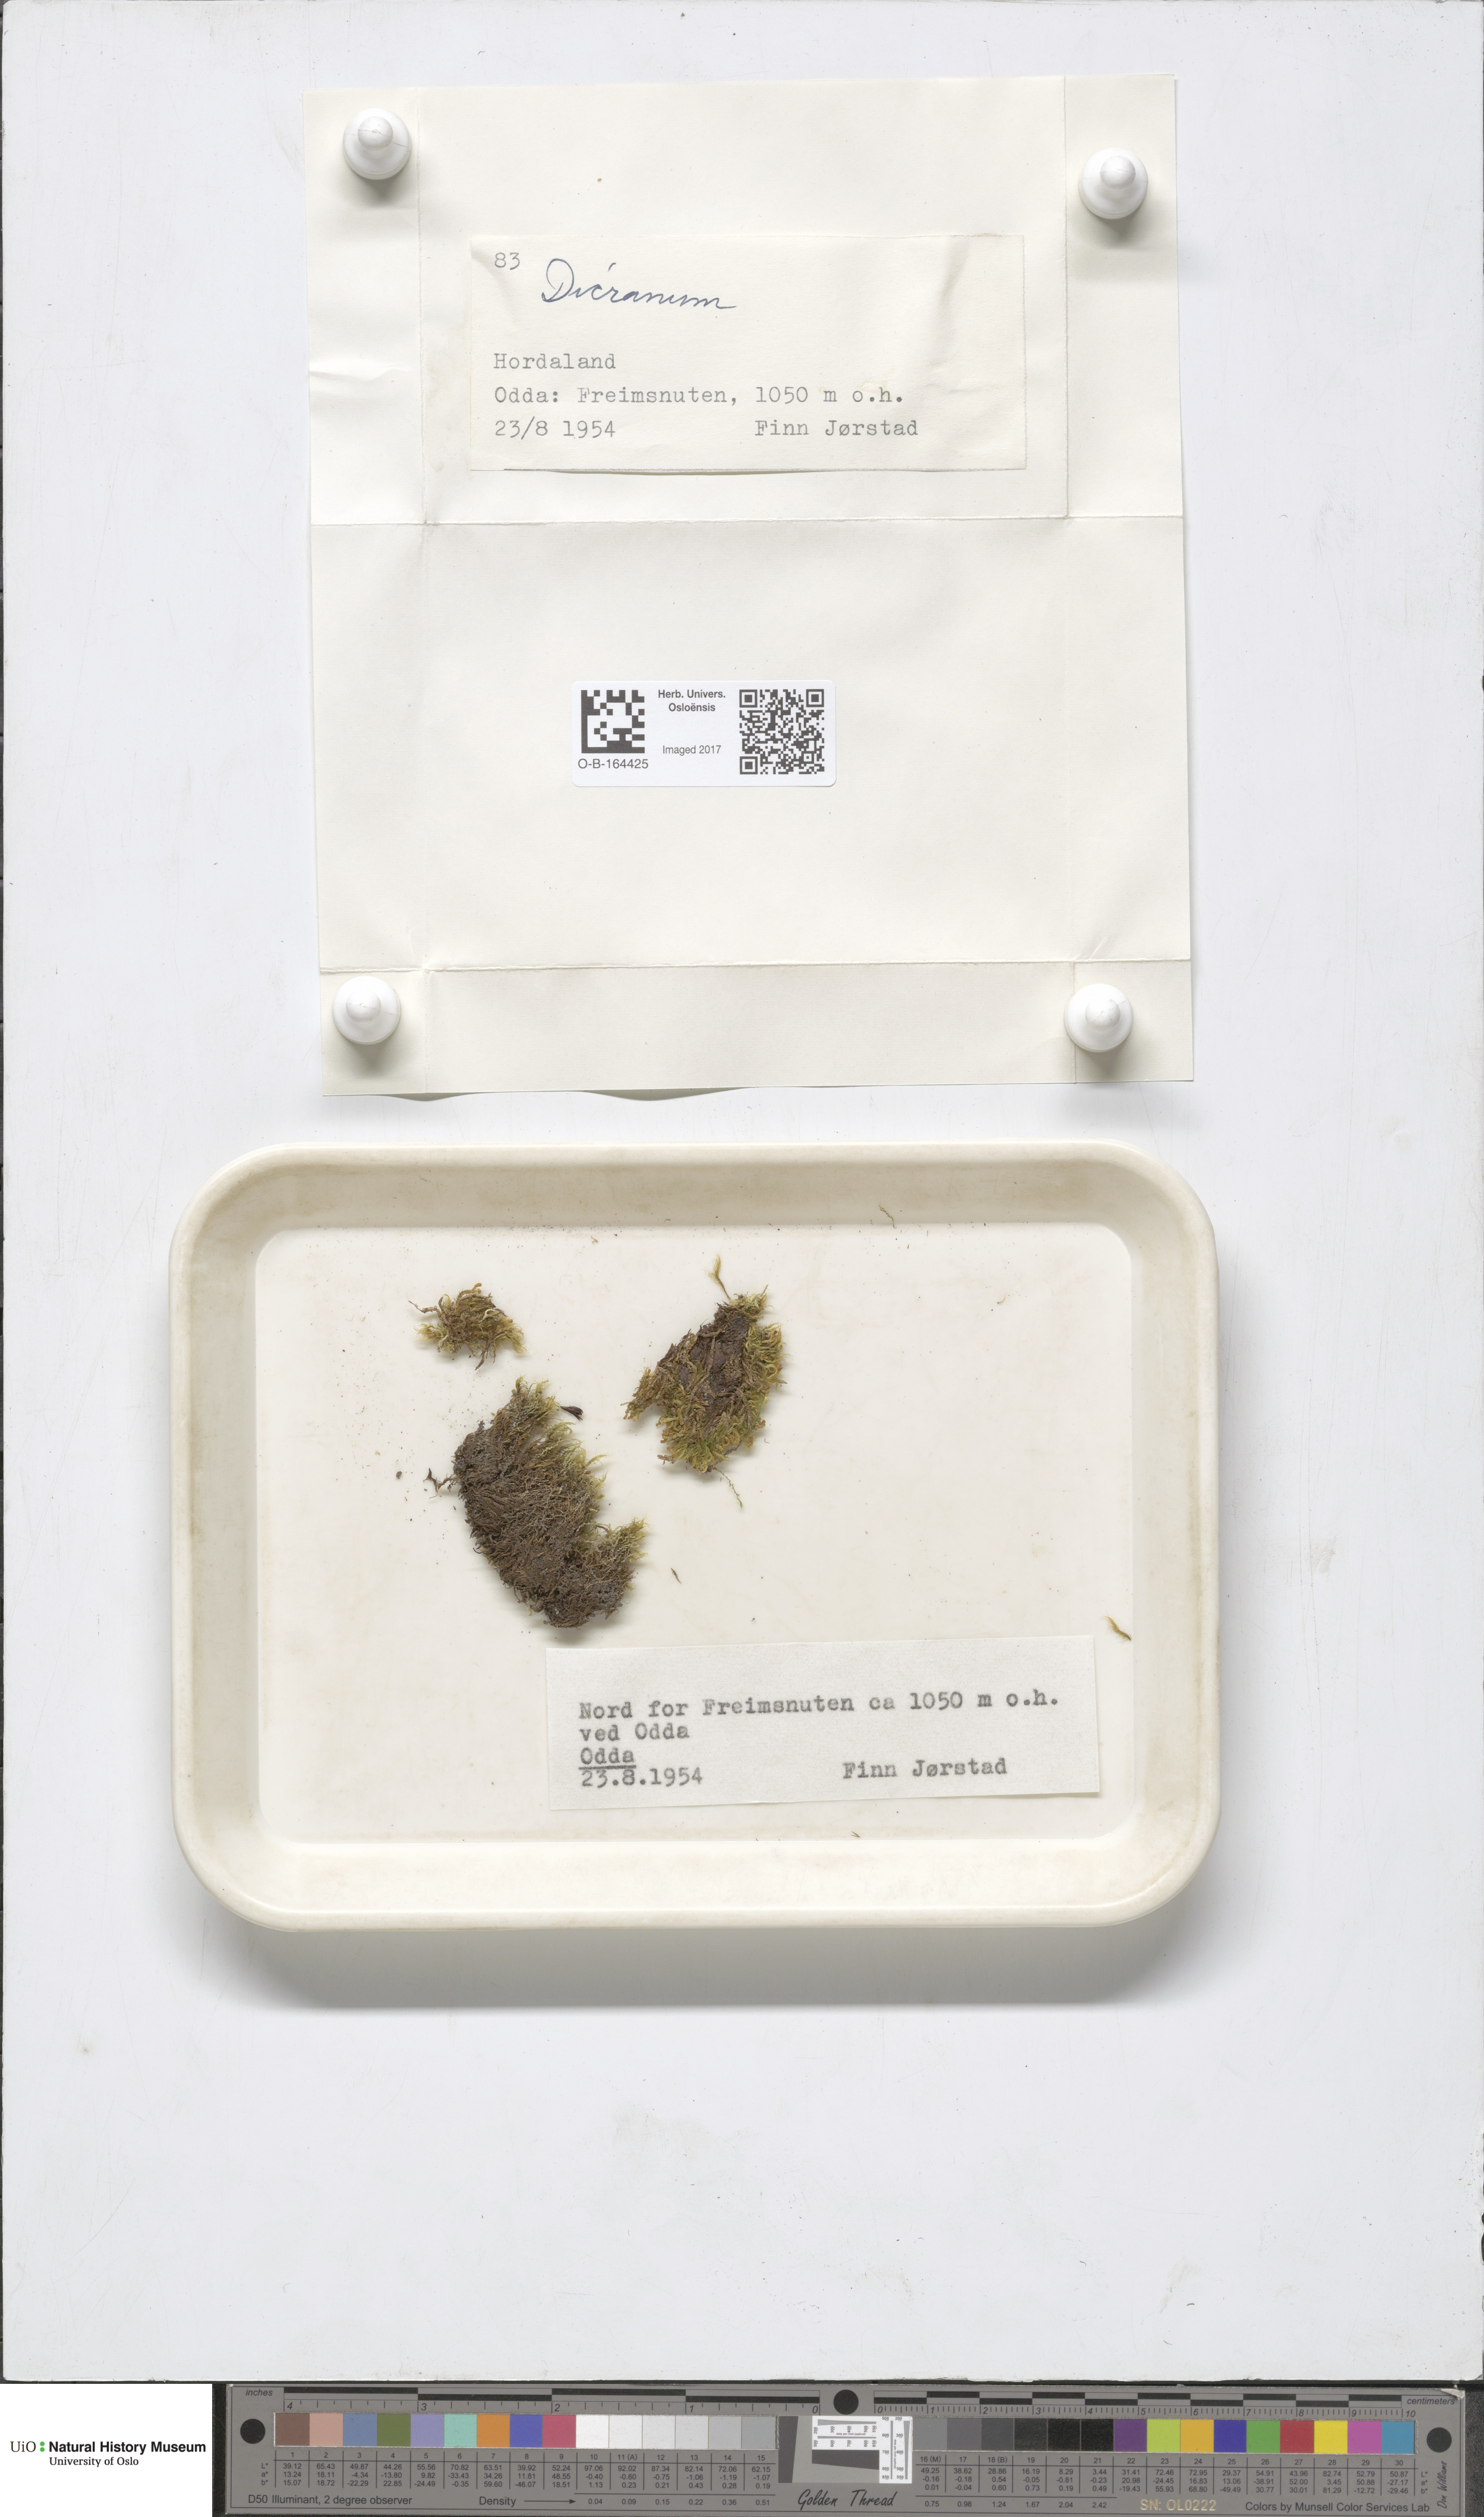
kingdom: Plantae
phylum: Bryophyta
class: Bryopsida
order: Dicranales
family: Dicranaceae
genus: Dicranum
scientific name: Dicranum
